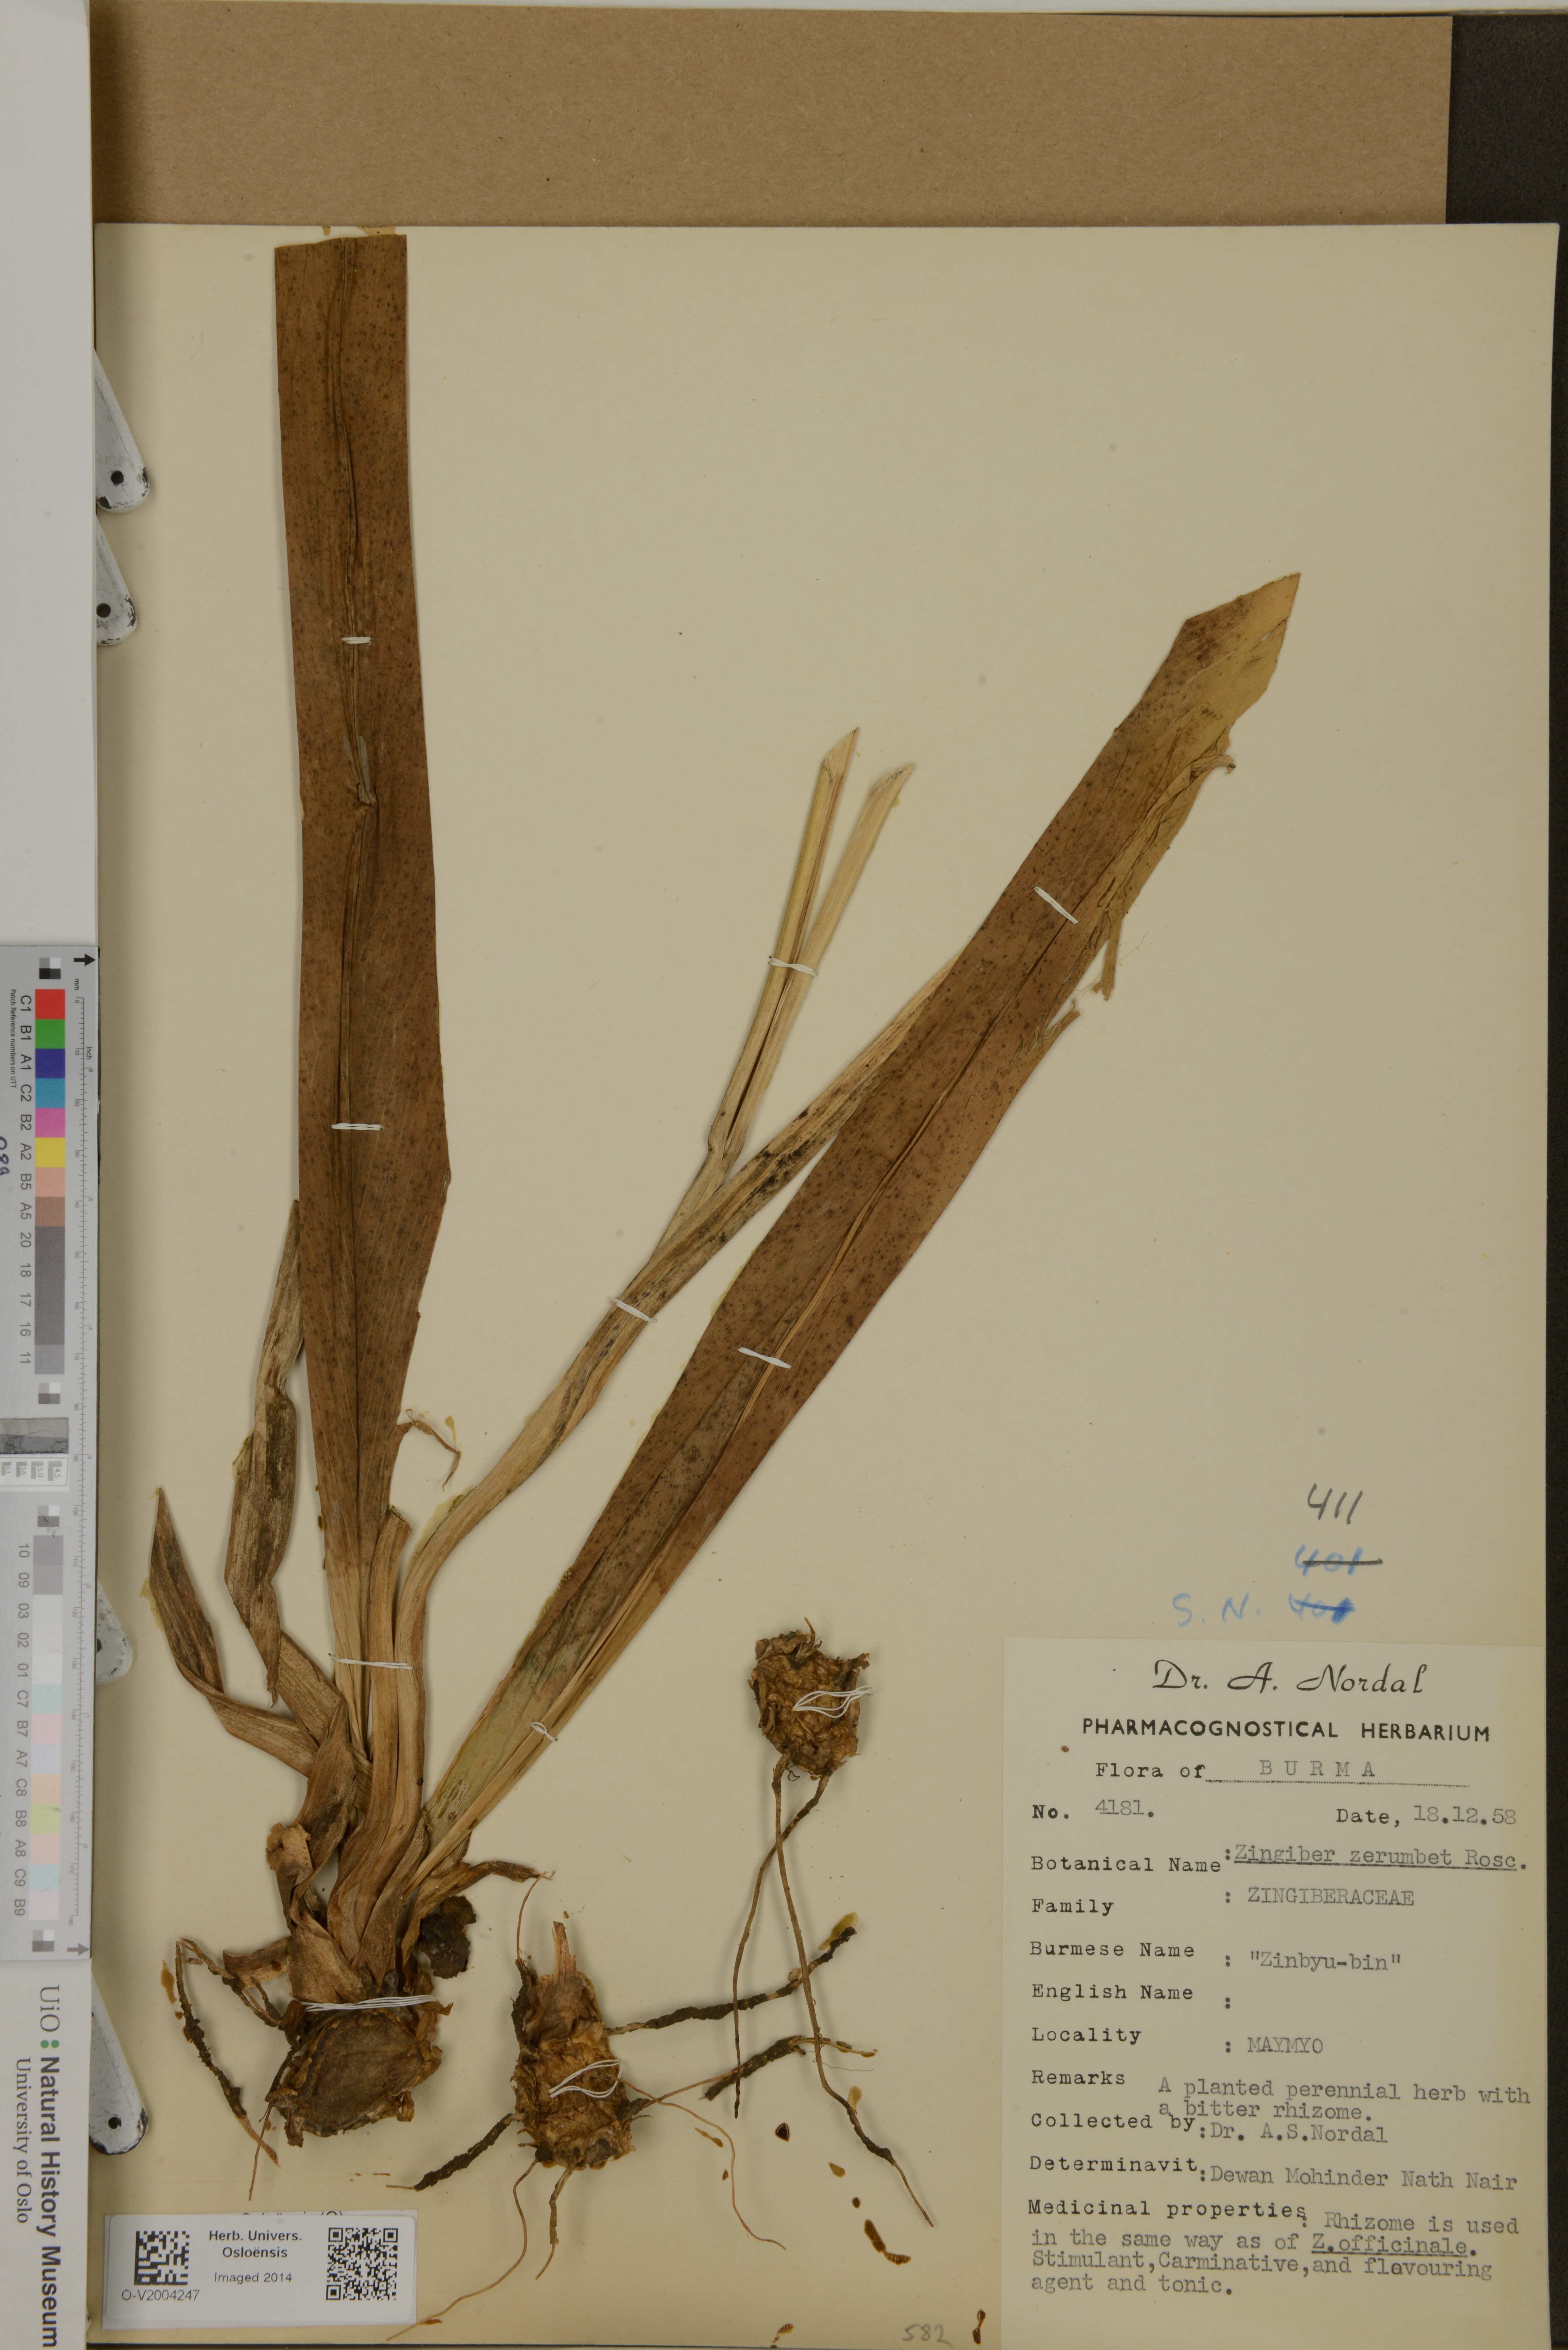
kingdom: Plantae
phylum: Tracheophyta
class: Liliopsida
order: Zingiberales
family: Zingiberaceae
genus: Zingiber
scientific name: Zingiber zerumbet
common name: Bitter ginger
